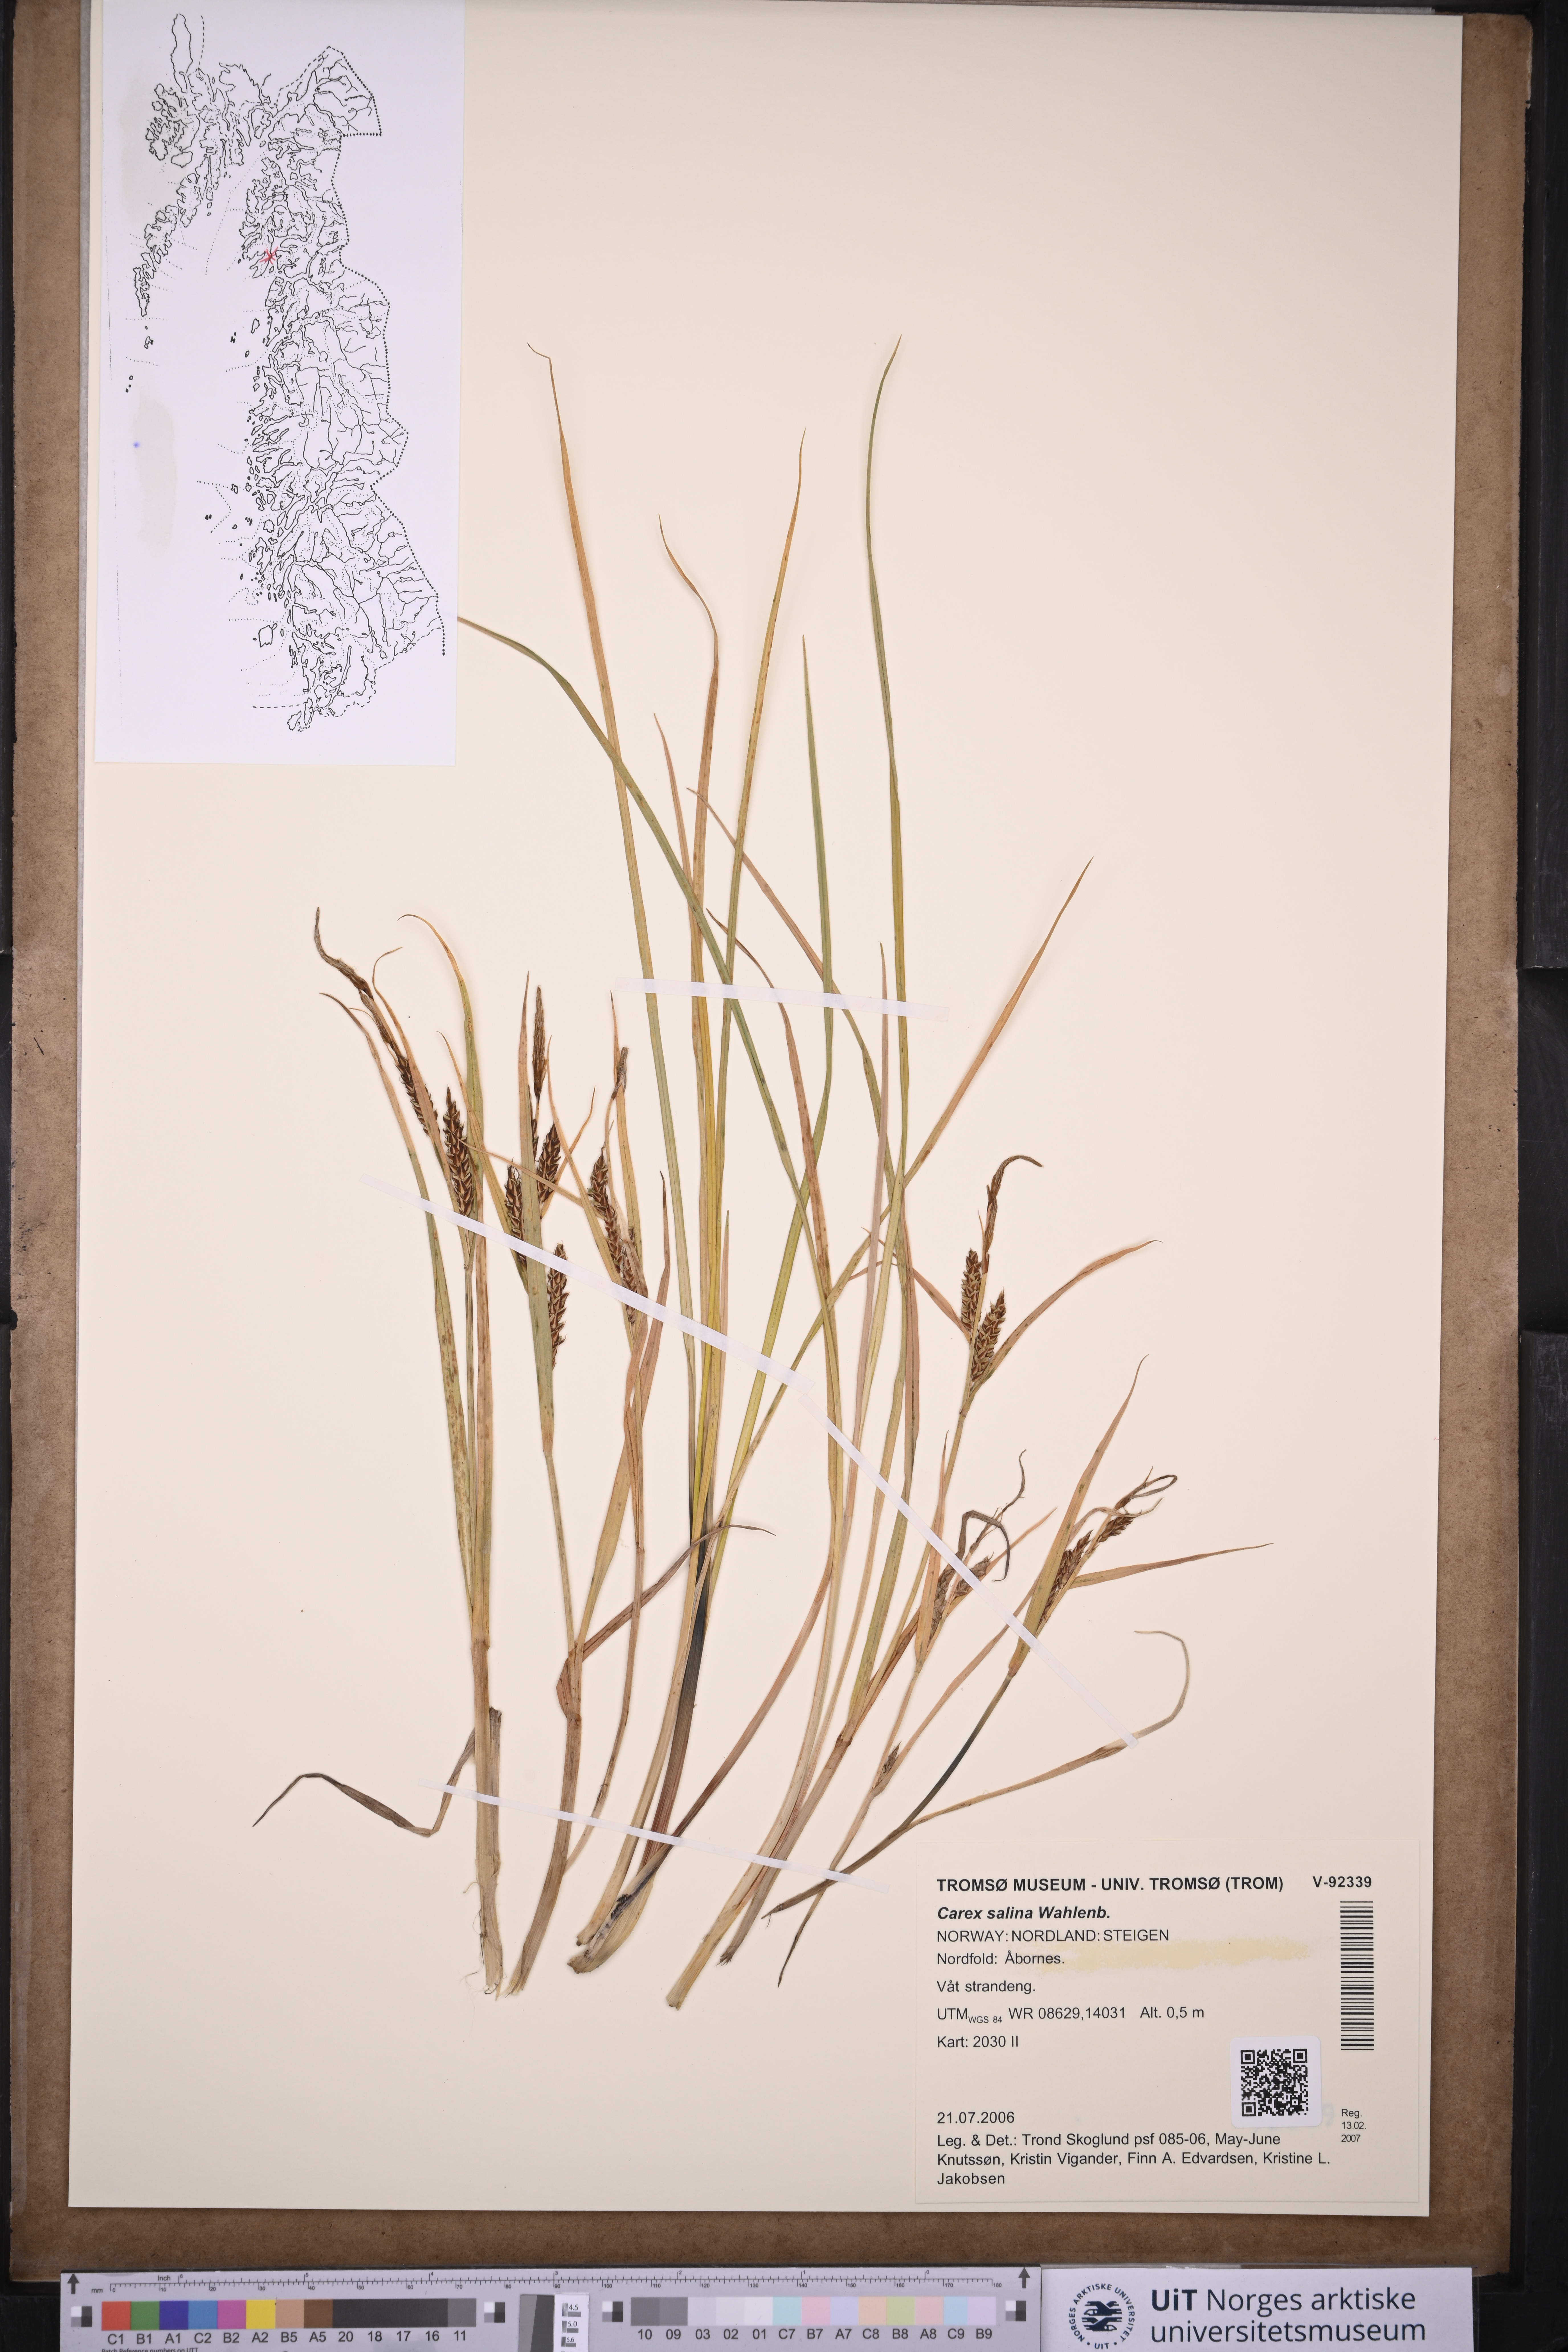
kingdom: Plantae
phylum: Tracheophyta
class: Liliopsida
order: Poales
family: Cyperaceae
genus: Carex
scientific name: Carex salina
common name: Saltmarsh sedge
